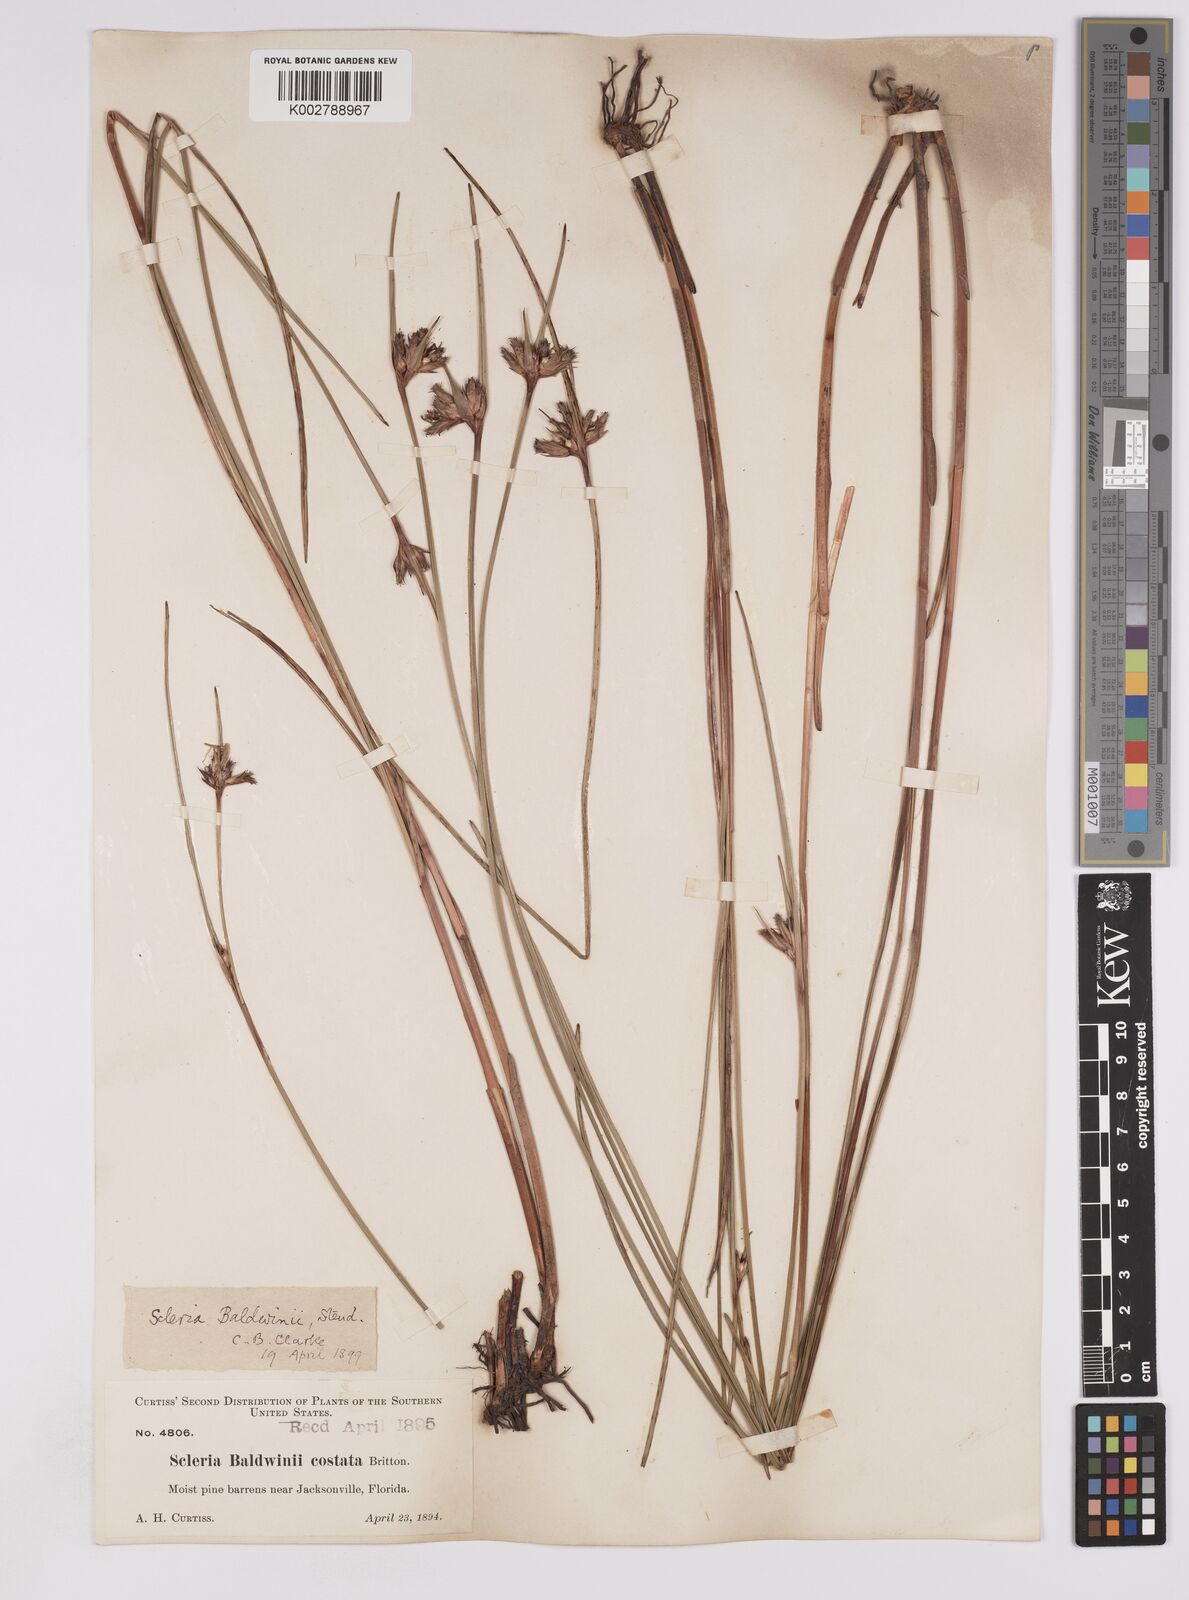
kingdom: Plantae
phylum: Tracheophyta
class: Liliopsida
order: Poales
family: Cyperaceae
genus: Scleria
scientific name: Scleria baldwinii
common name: Baldwin's nutrush
